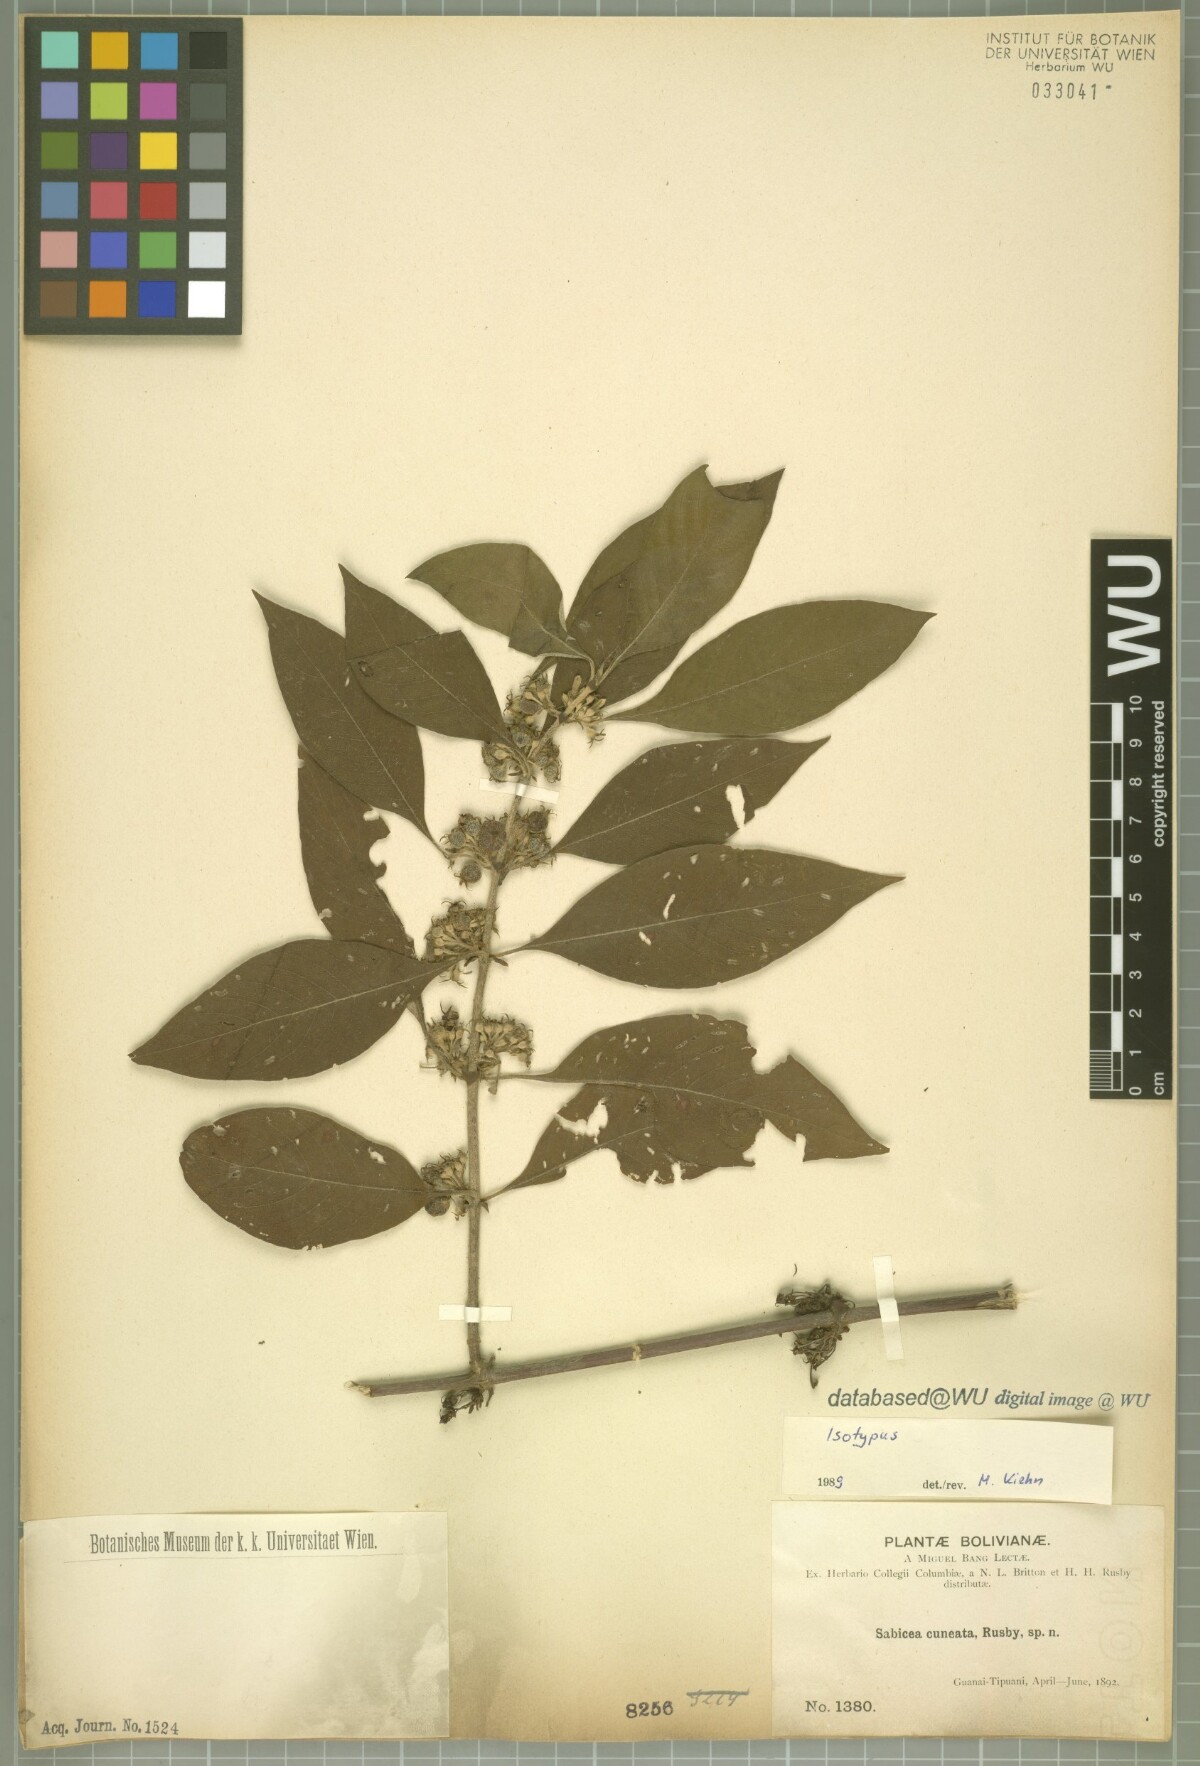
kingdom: Plantae
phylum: Tracheophyta
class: Magnoliopsida
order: Gentianales
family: Rubiaceae
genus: Sabicea
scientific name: Sabicea cuneata
